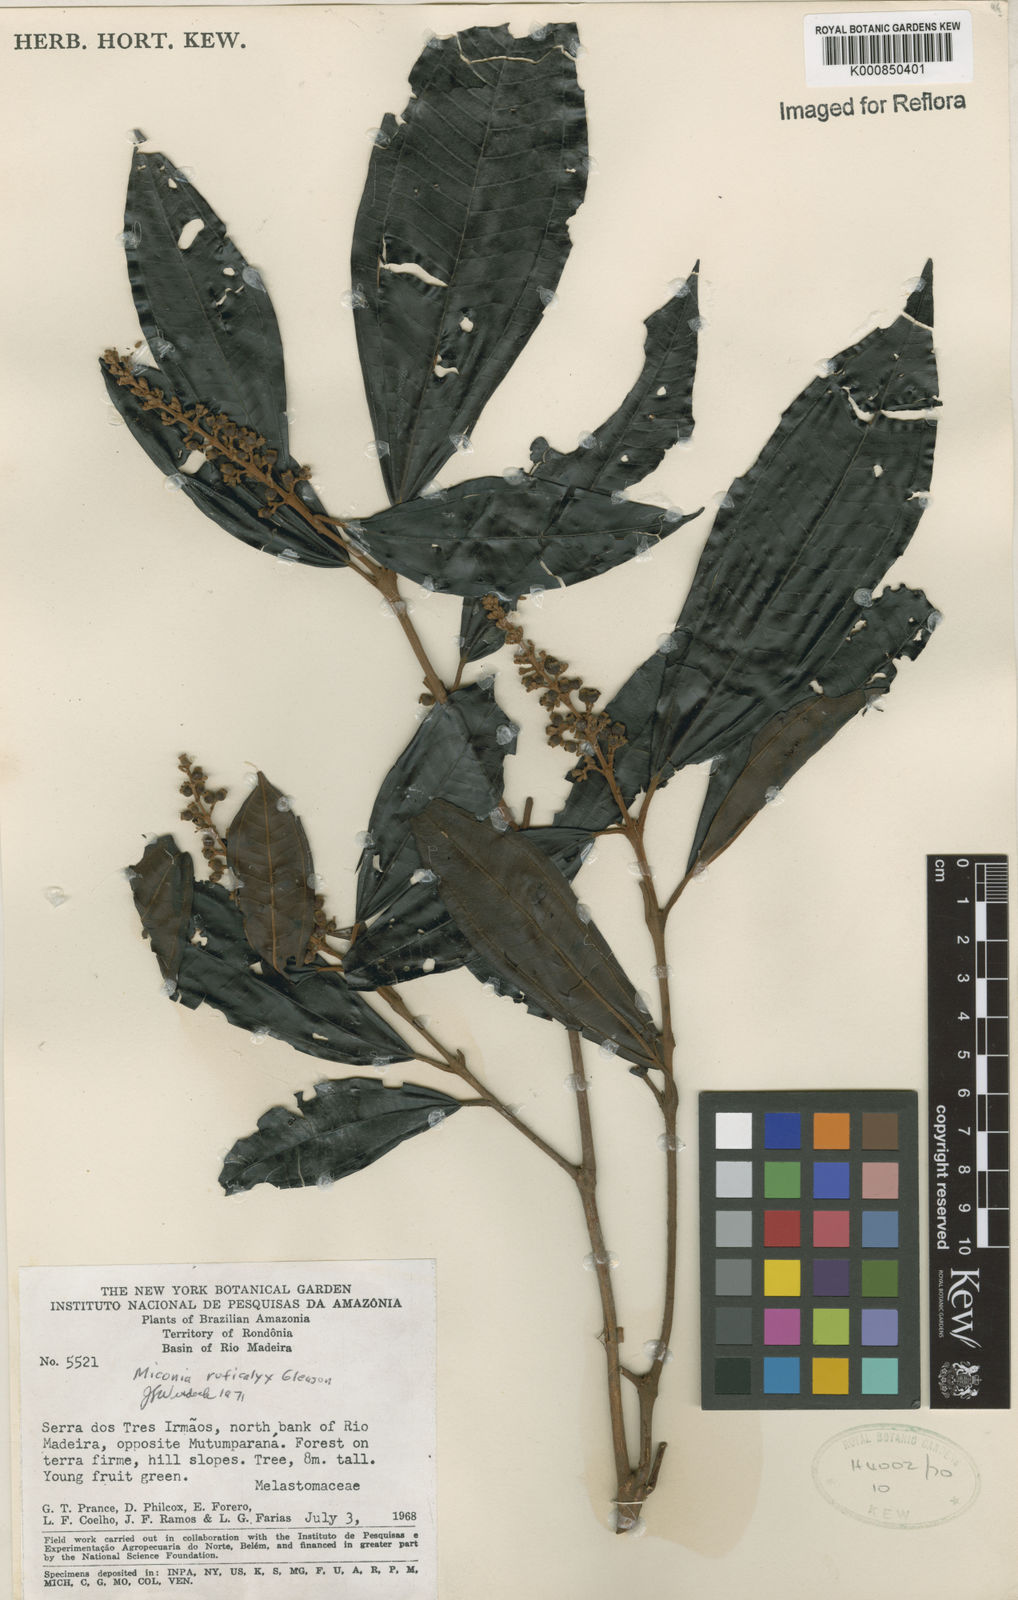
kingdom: Plantae
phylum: Tracheophyta
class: Magnoliopsida
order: Myrtales
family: Melastomataceae
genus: Miconia
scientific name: Miconia ruficalyx
